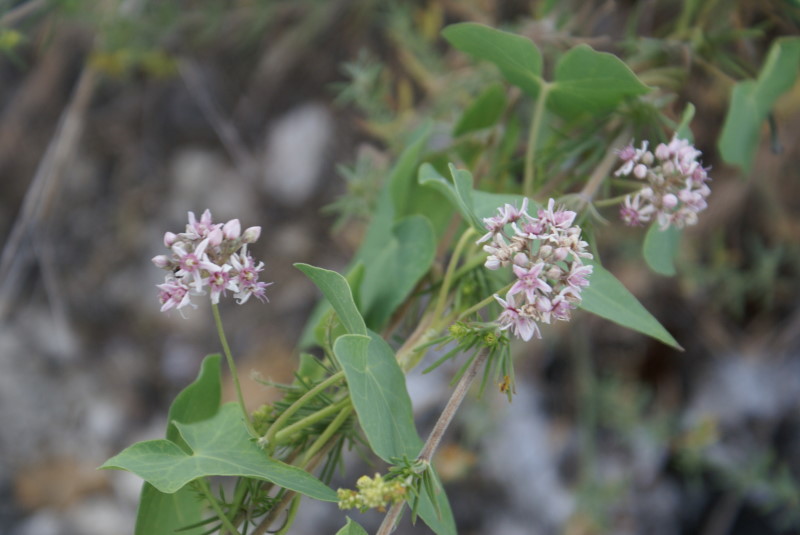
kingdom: Plantae
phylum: Tracheophyta
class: Magnoliopsida
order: Gentianales
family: Apocynaceae
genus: Cynanchum
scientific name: Cynanchum acutum
